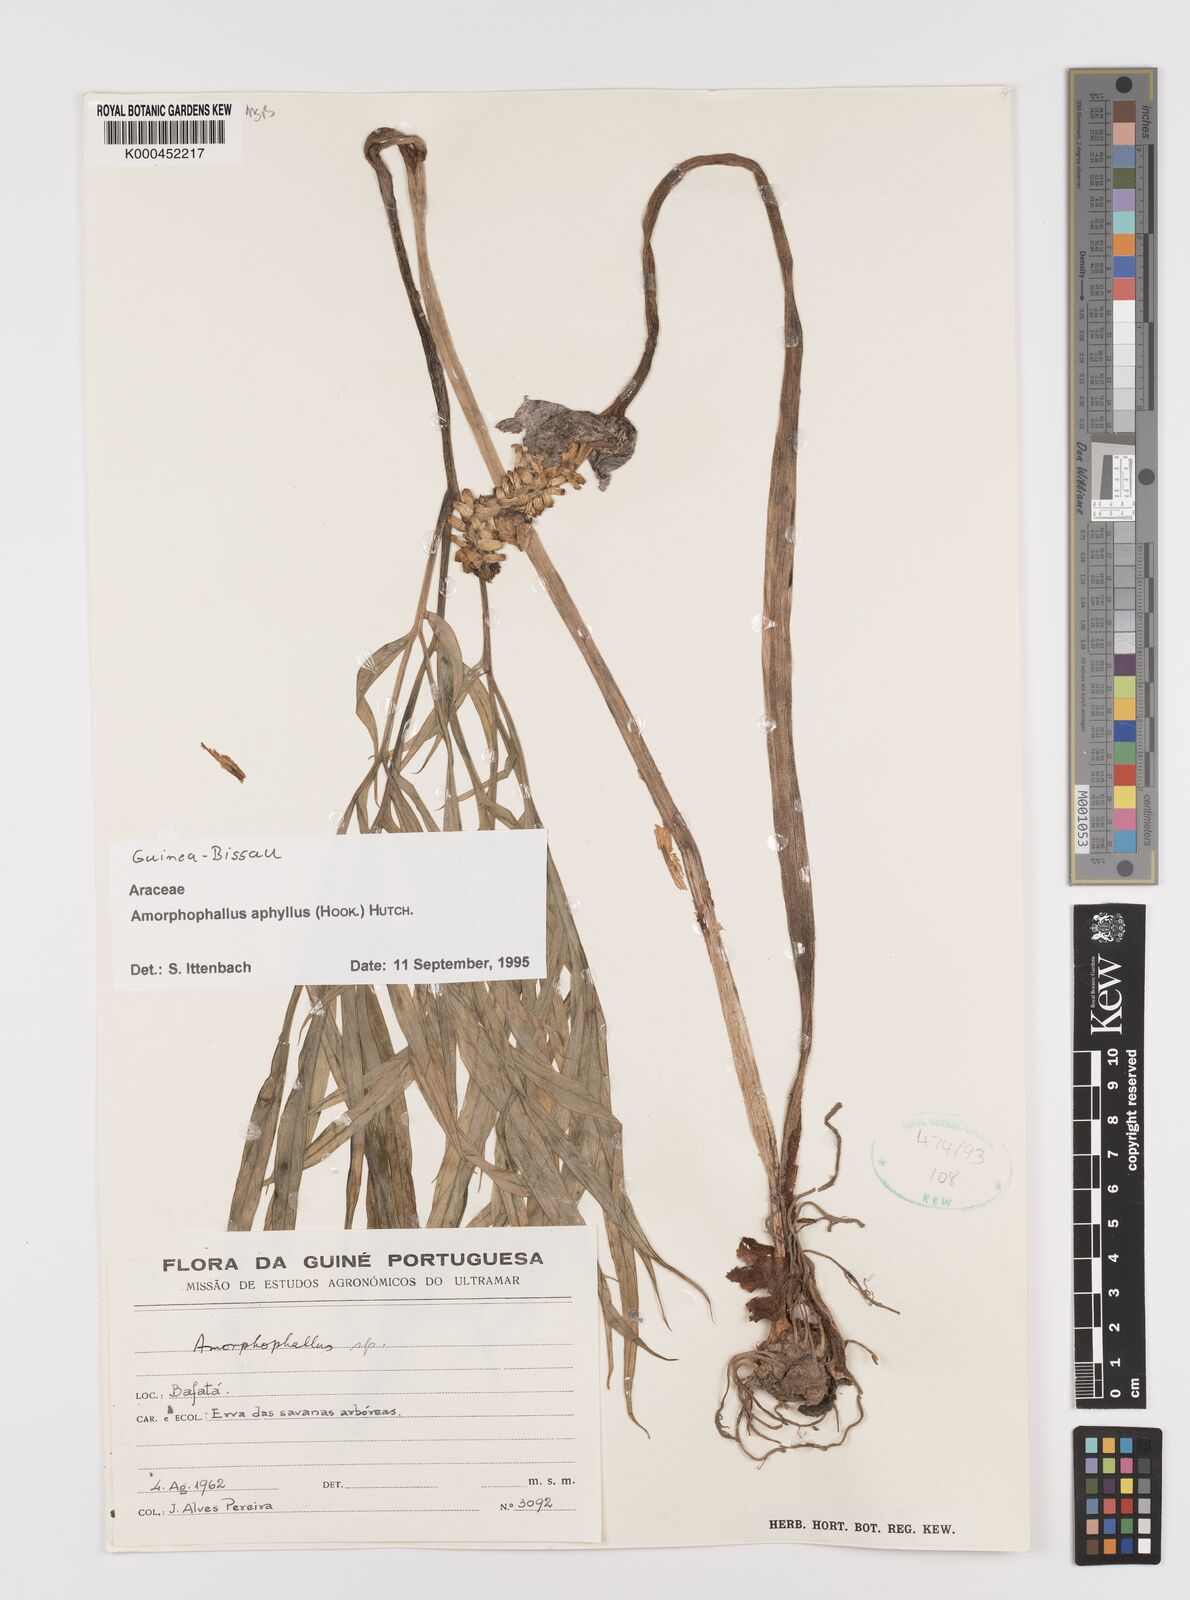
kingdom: Plantae
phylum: Tracheophyta
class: Liliopsida
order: Alismatales
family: Araceae
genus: Amorphophallus
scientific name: Amorphophallus aphyllus
